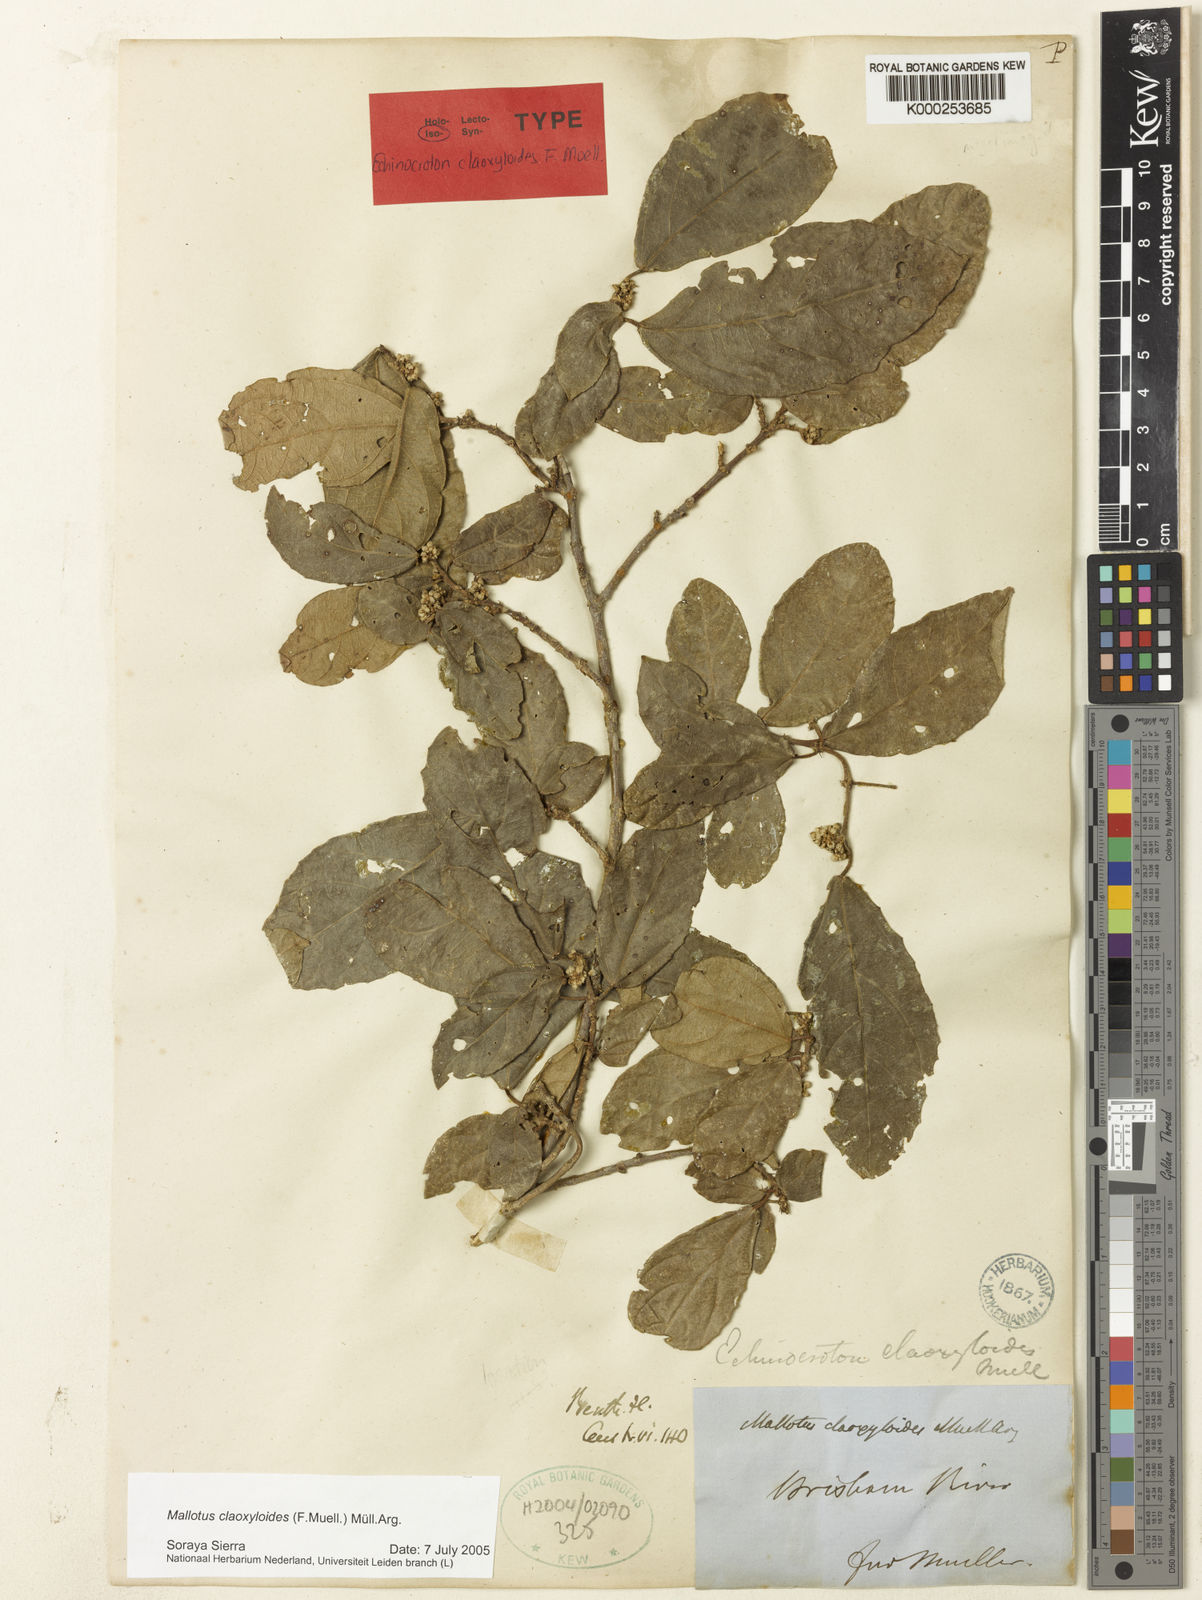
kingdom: Plantae
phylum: Tracheophyta
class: Magnoliopsida
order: Malpighiales
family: Euphorbiaceae
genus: Mallotus
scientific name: Mallotus claoxyloides
